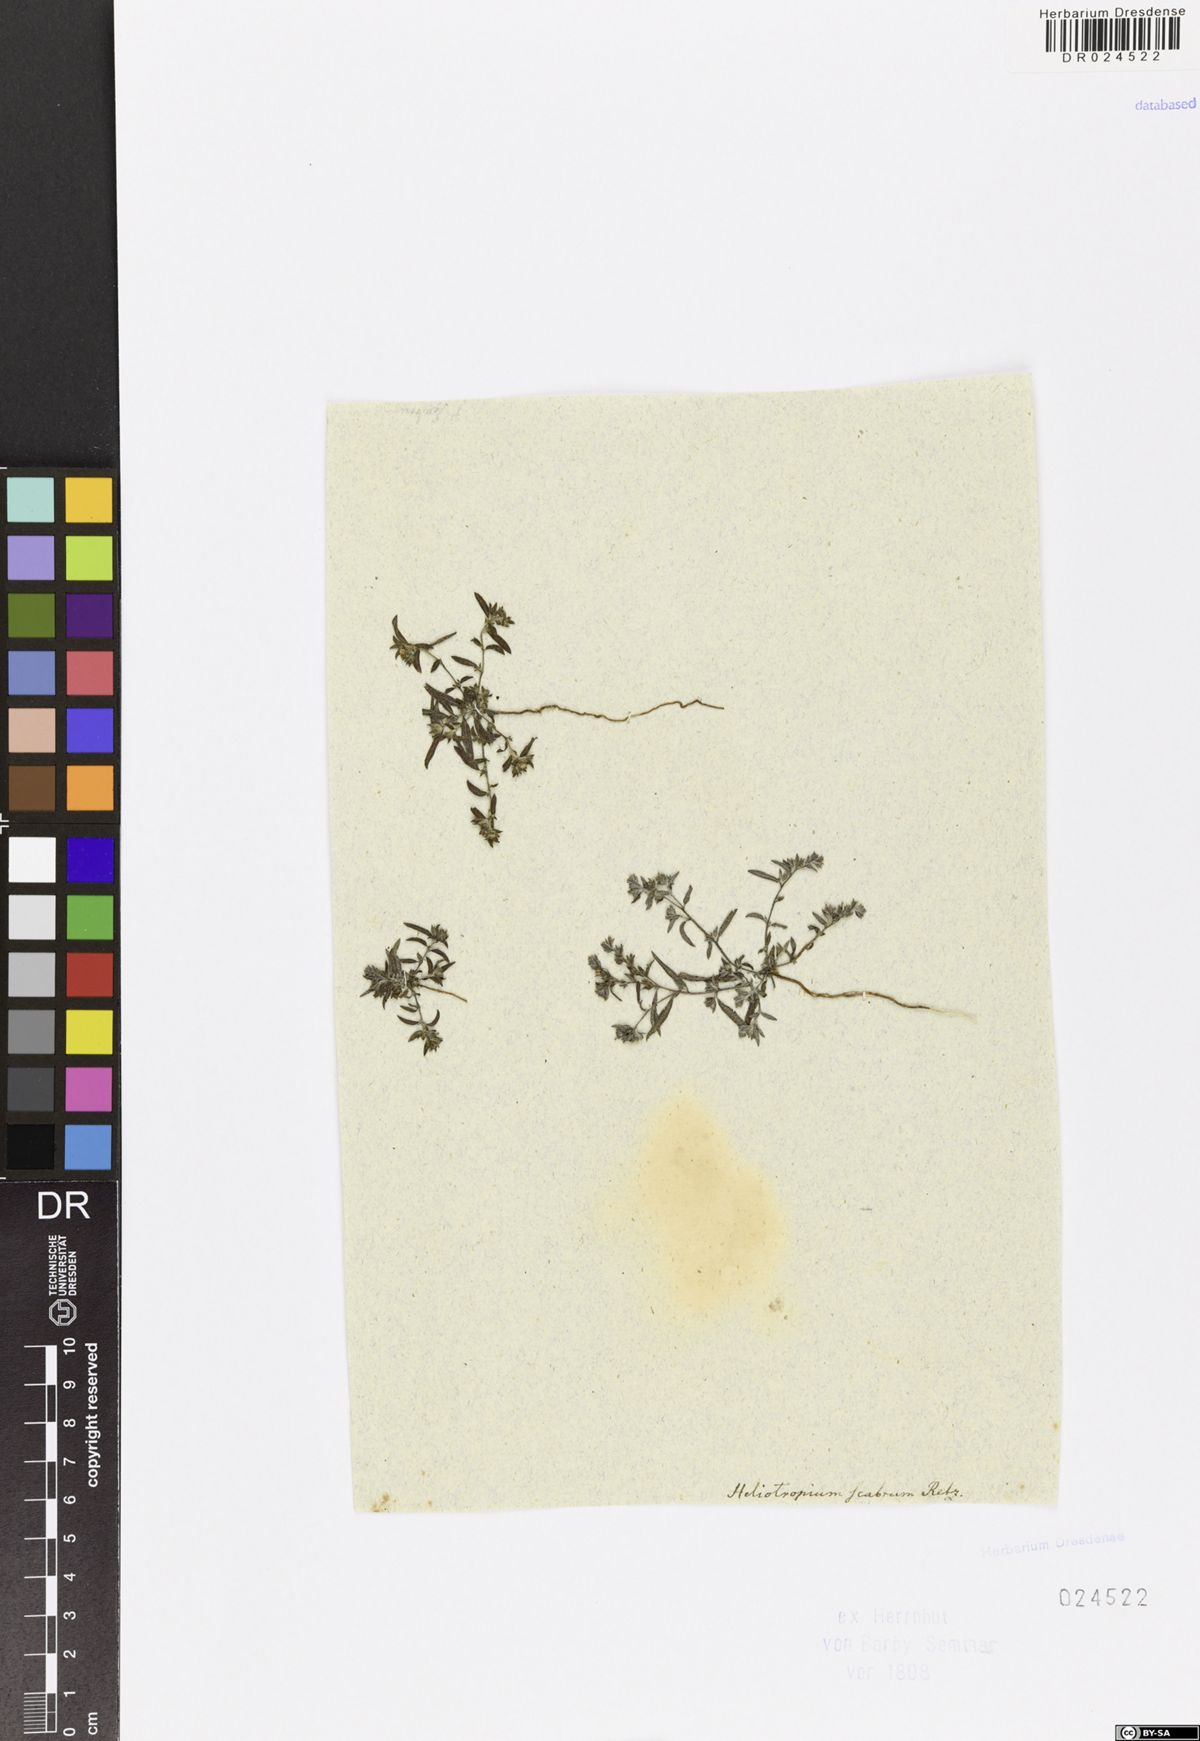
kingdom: Plantae
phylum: Tracheophyta
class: Magnoliopsida
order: Boraginales
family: Heliotropiaceae
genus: Euploca
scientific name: Euploca marifolia
